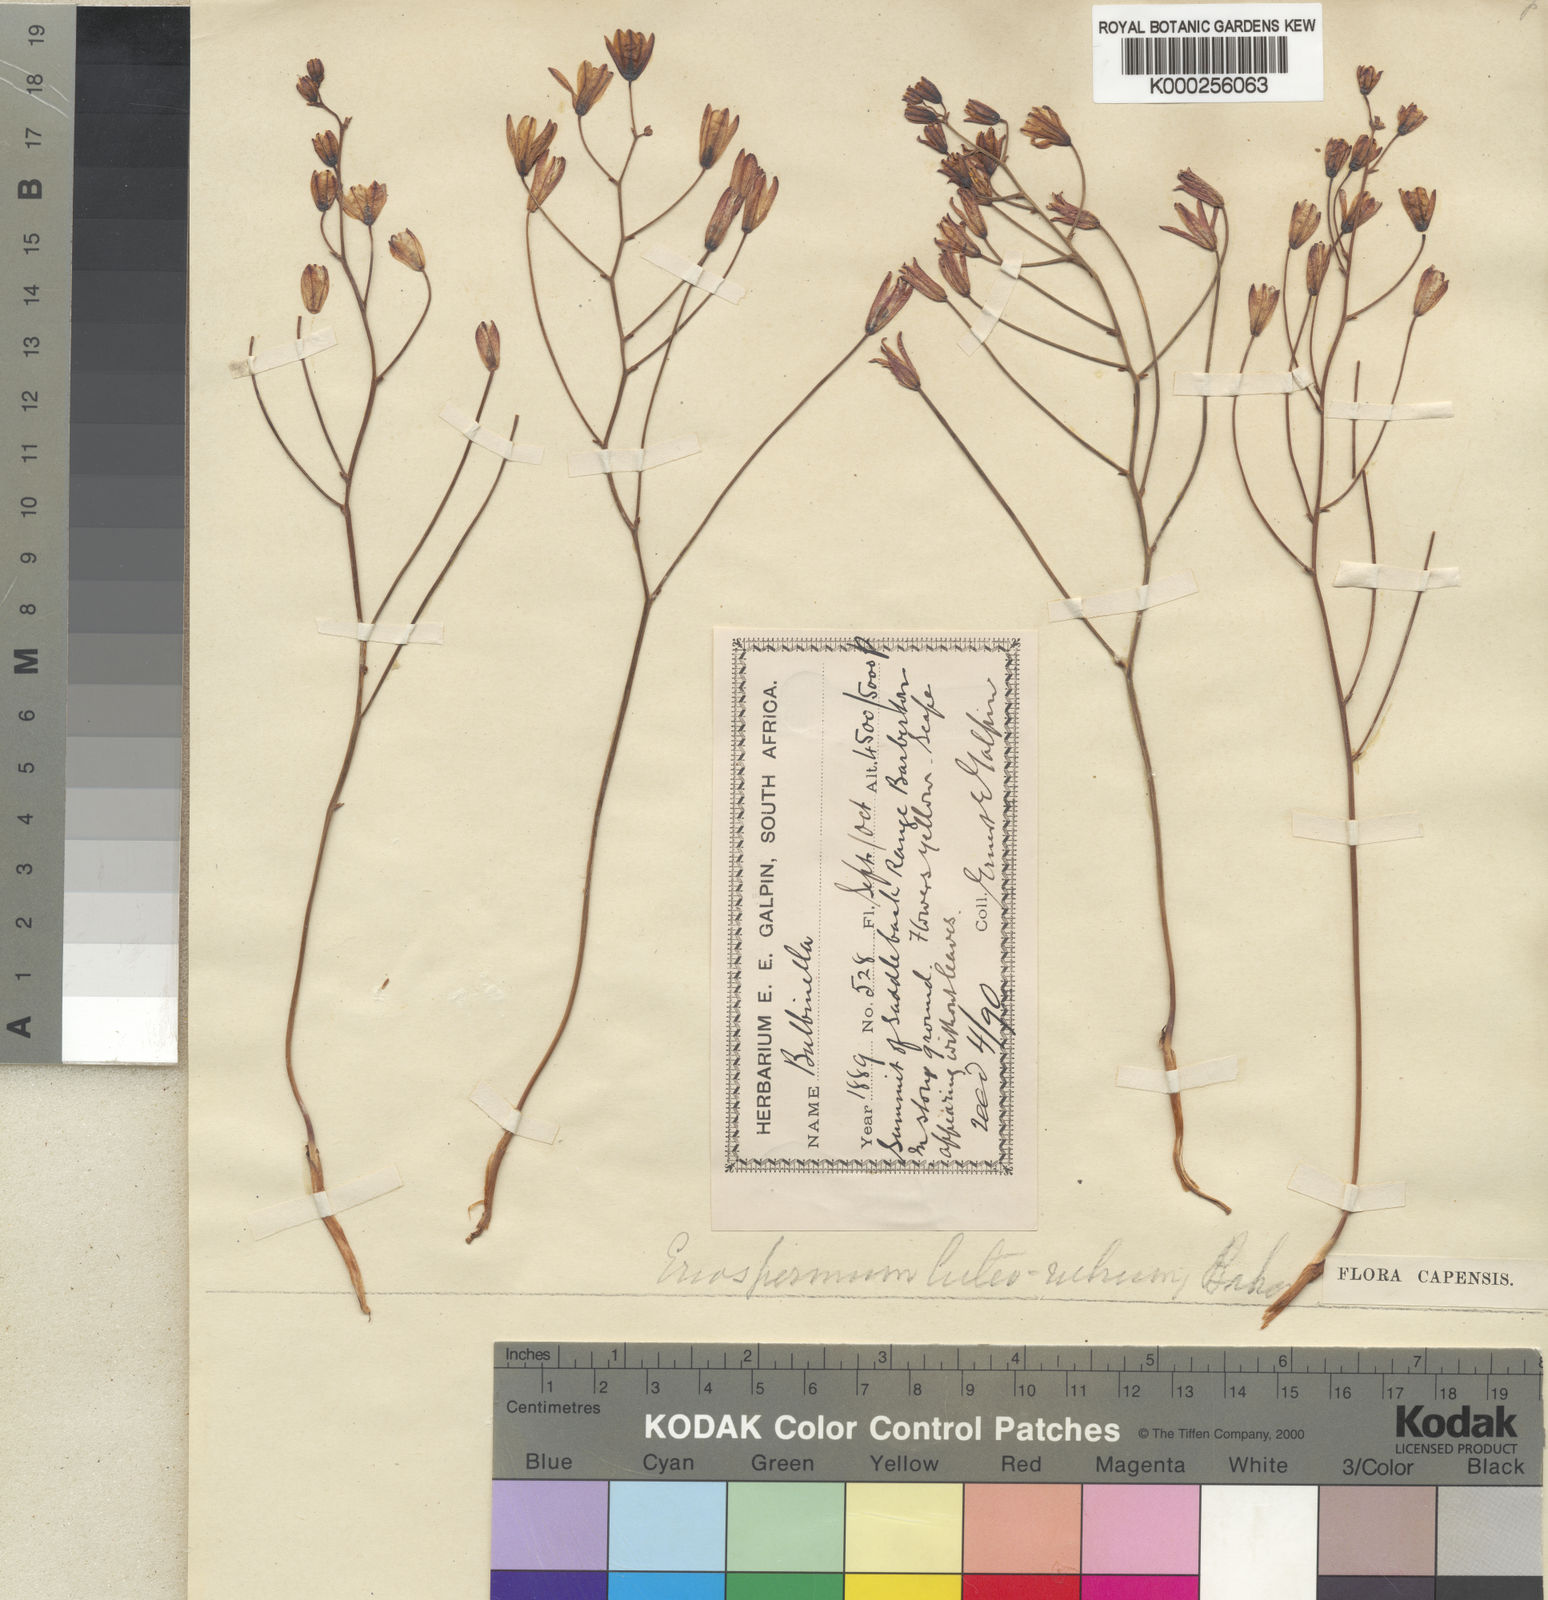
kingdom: Plantae
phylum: Tracheophyta
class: Liliopsida
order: Asparagales
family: Asparagaceae
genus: Eriospermum
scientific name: Eriospermum abyssinicum
